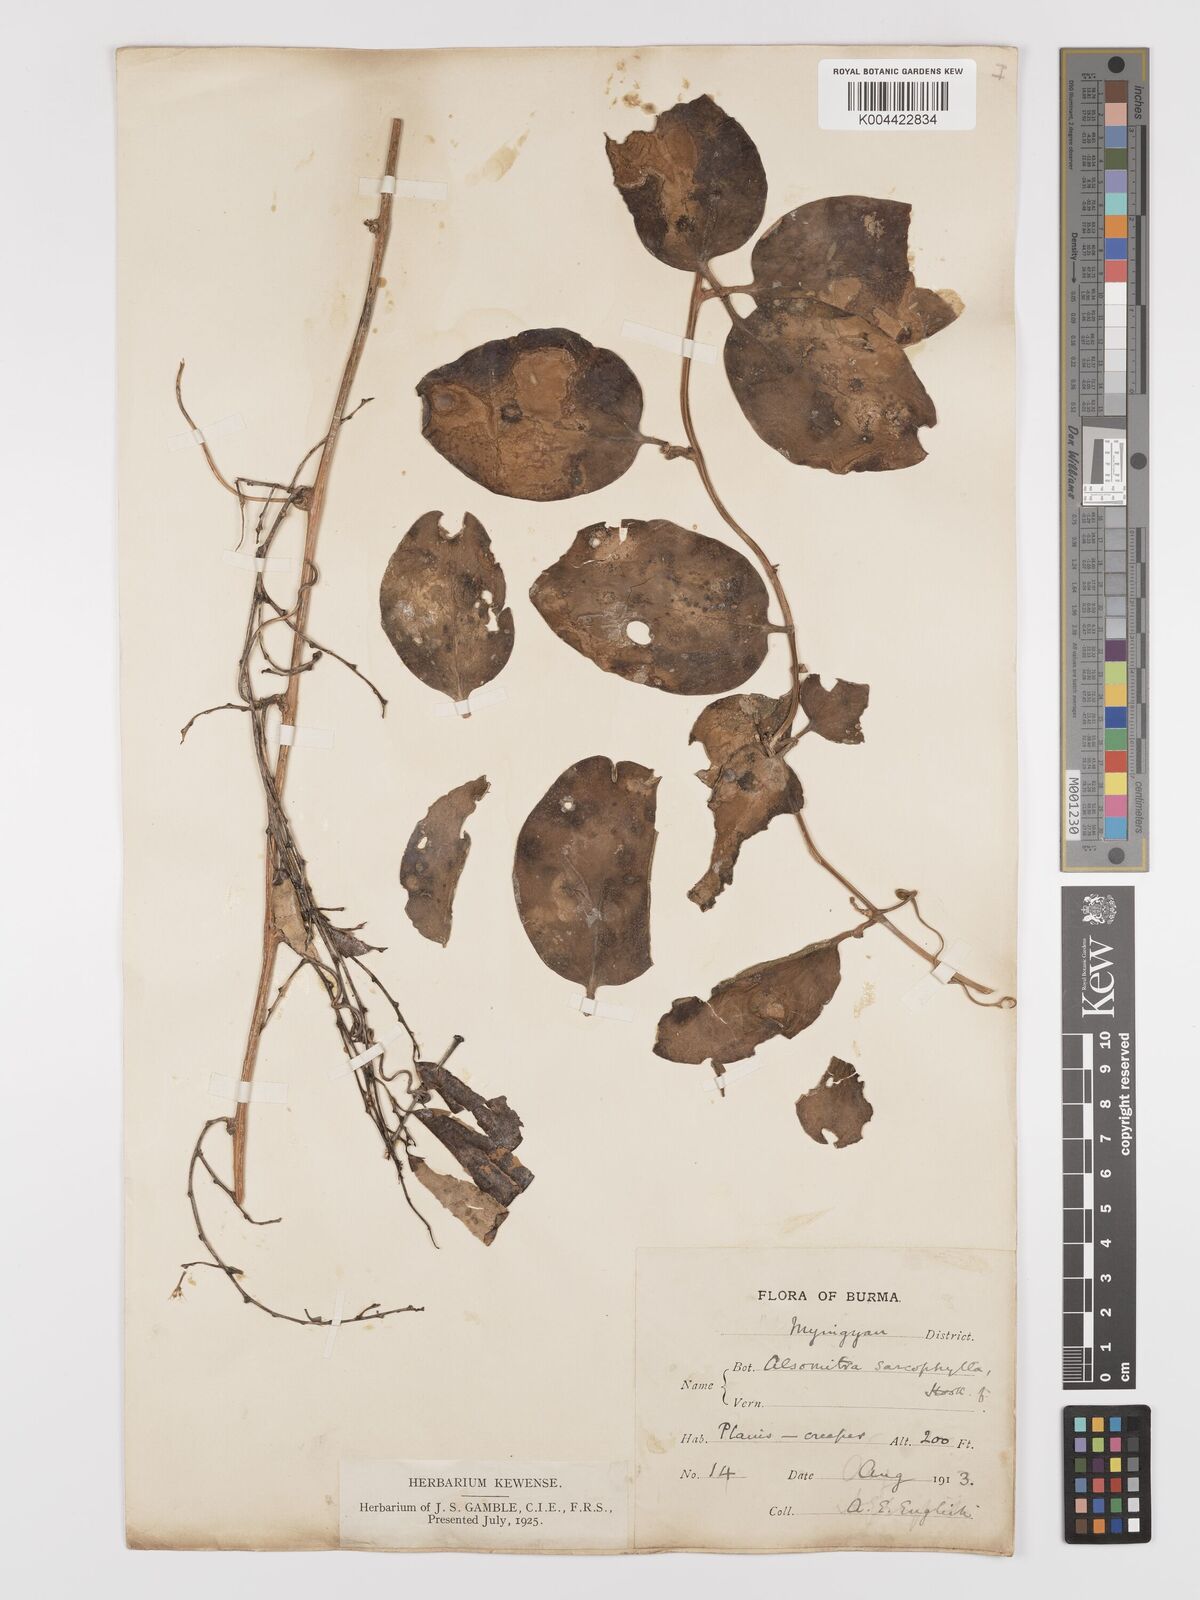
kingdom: Plantae
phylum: Tracheophyta
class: Magnoliopsida
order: Cucurbitales
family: Cucurbitaceae
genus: Neoalsomitra
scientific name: Neoalsomitra sarcophylla
